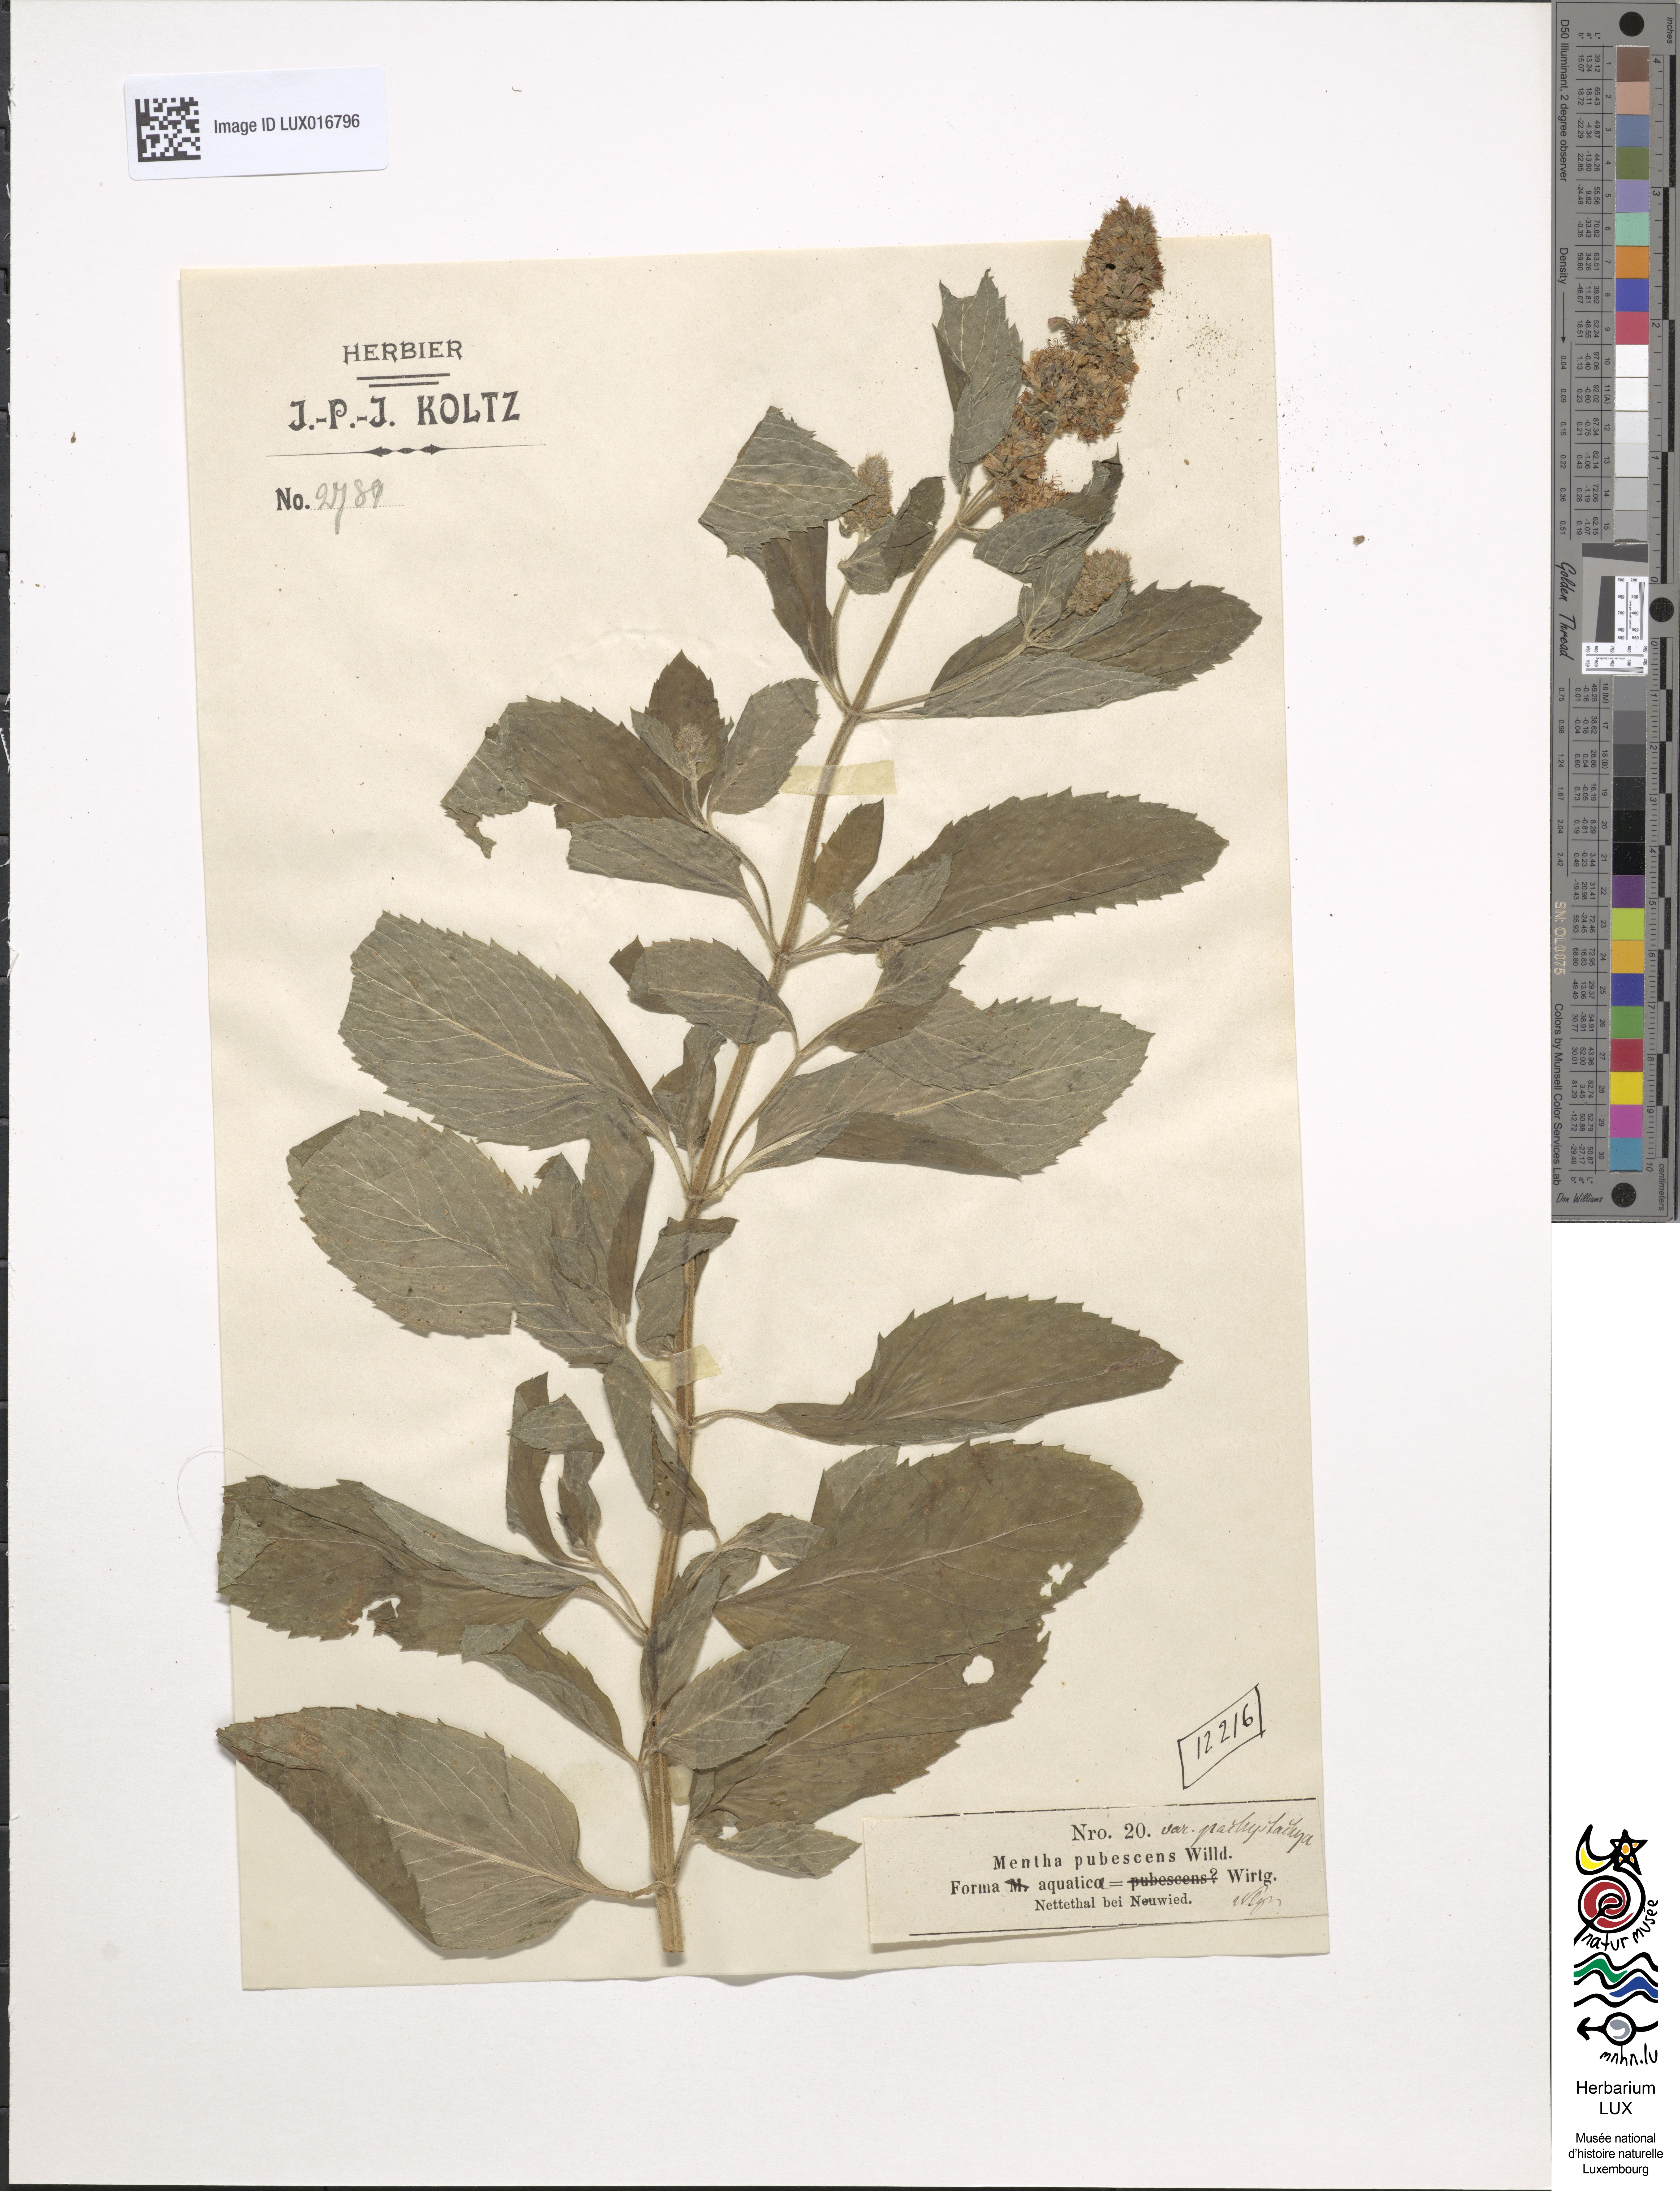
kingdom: Plantae
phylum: Tracheophyta
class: Magnoliopsida
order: Lamiales
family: Lamiaceae
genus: Mentha
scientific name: Mentha dumetorum
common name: Bush-loving mint
